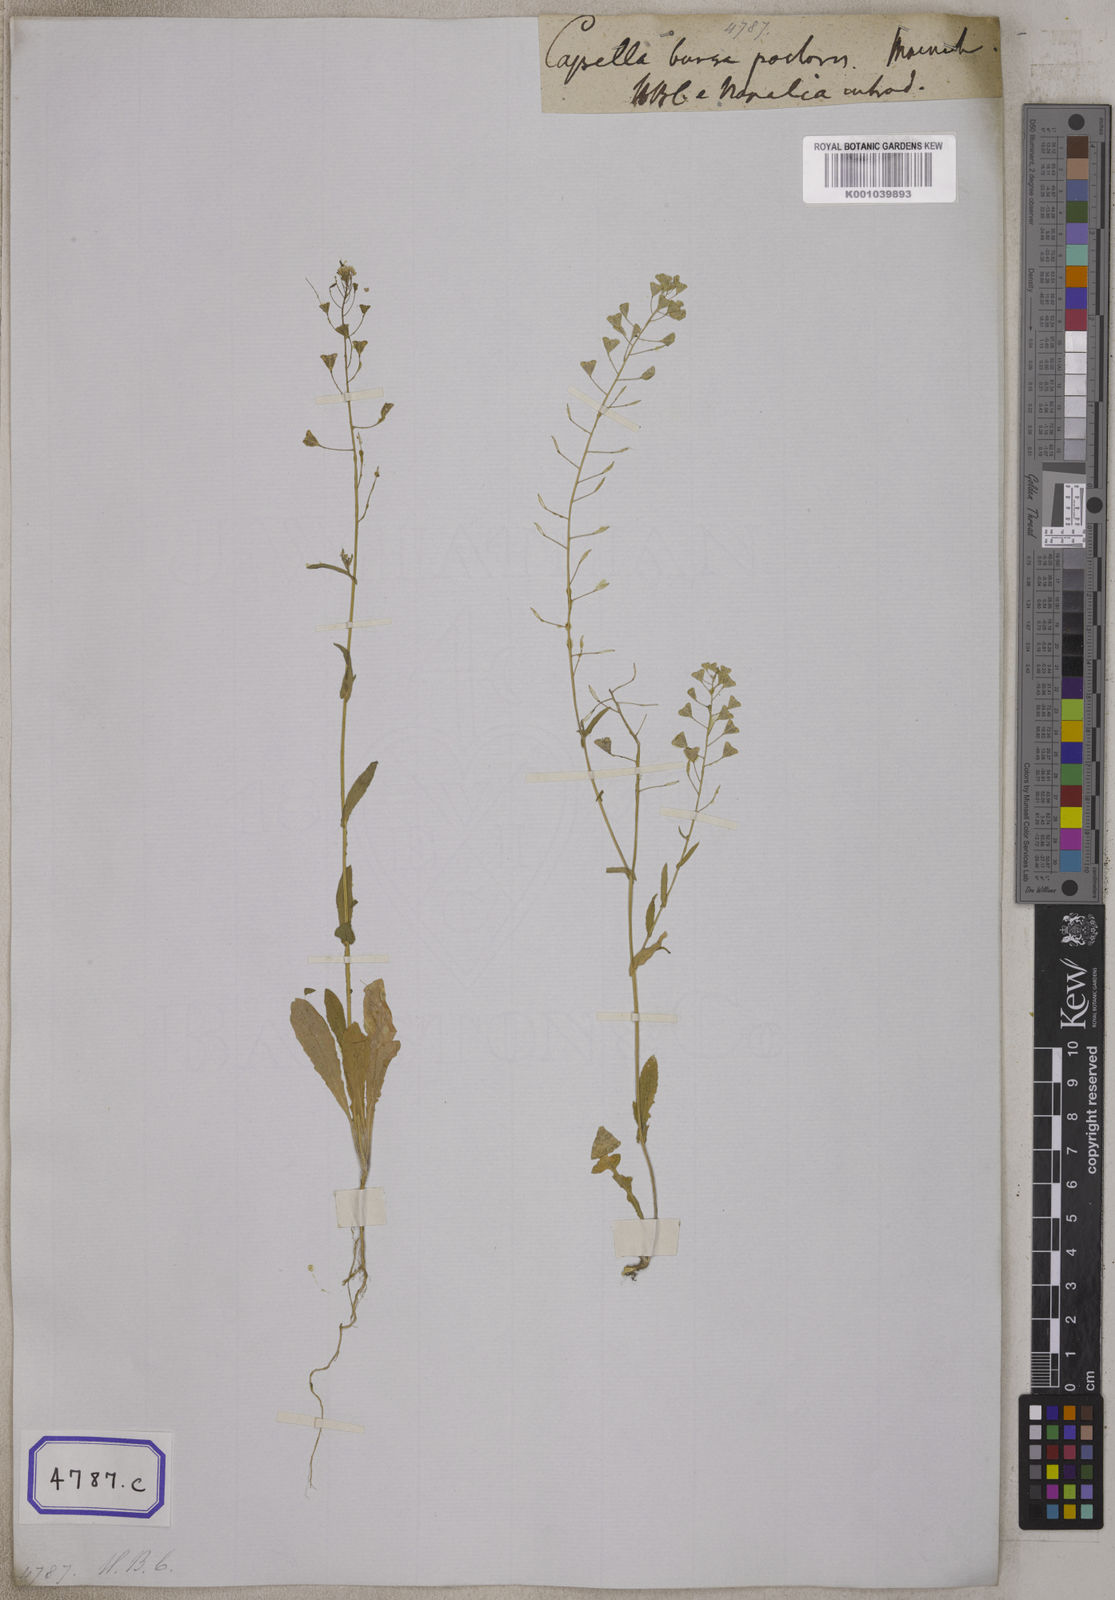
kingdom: Plantae
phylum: Tracheophyta
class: Magnoliopsida
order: Brassicales
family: Brassicaceae
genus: Capsella
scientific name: Capsella bursa-pastoris
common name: Shepherd's purse
